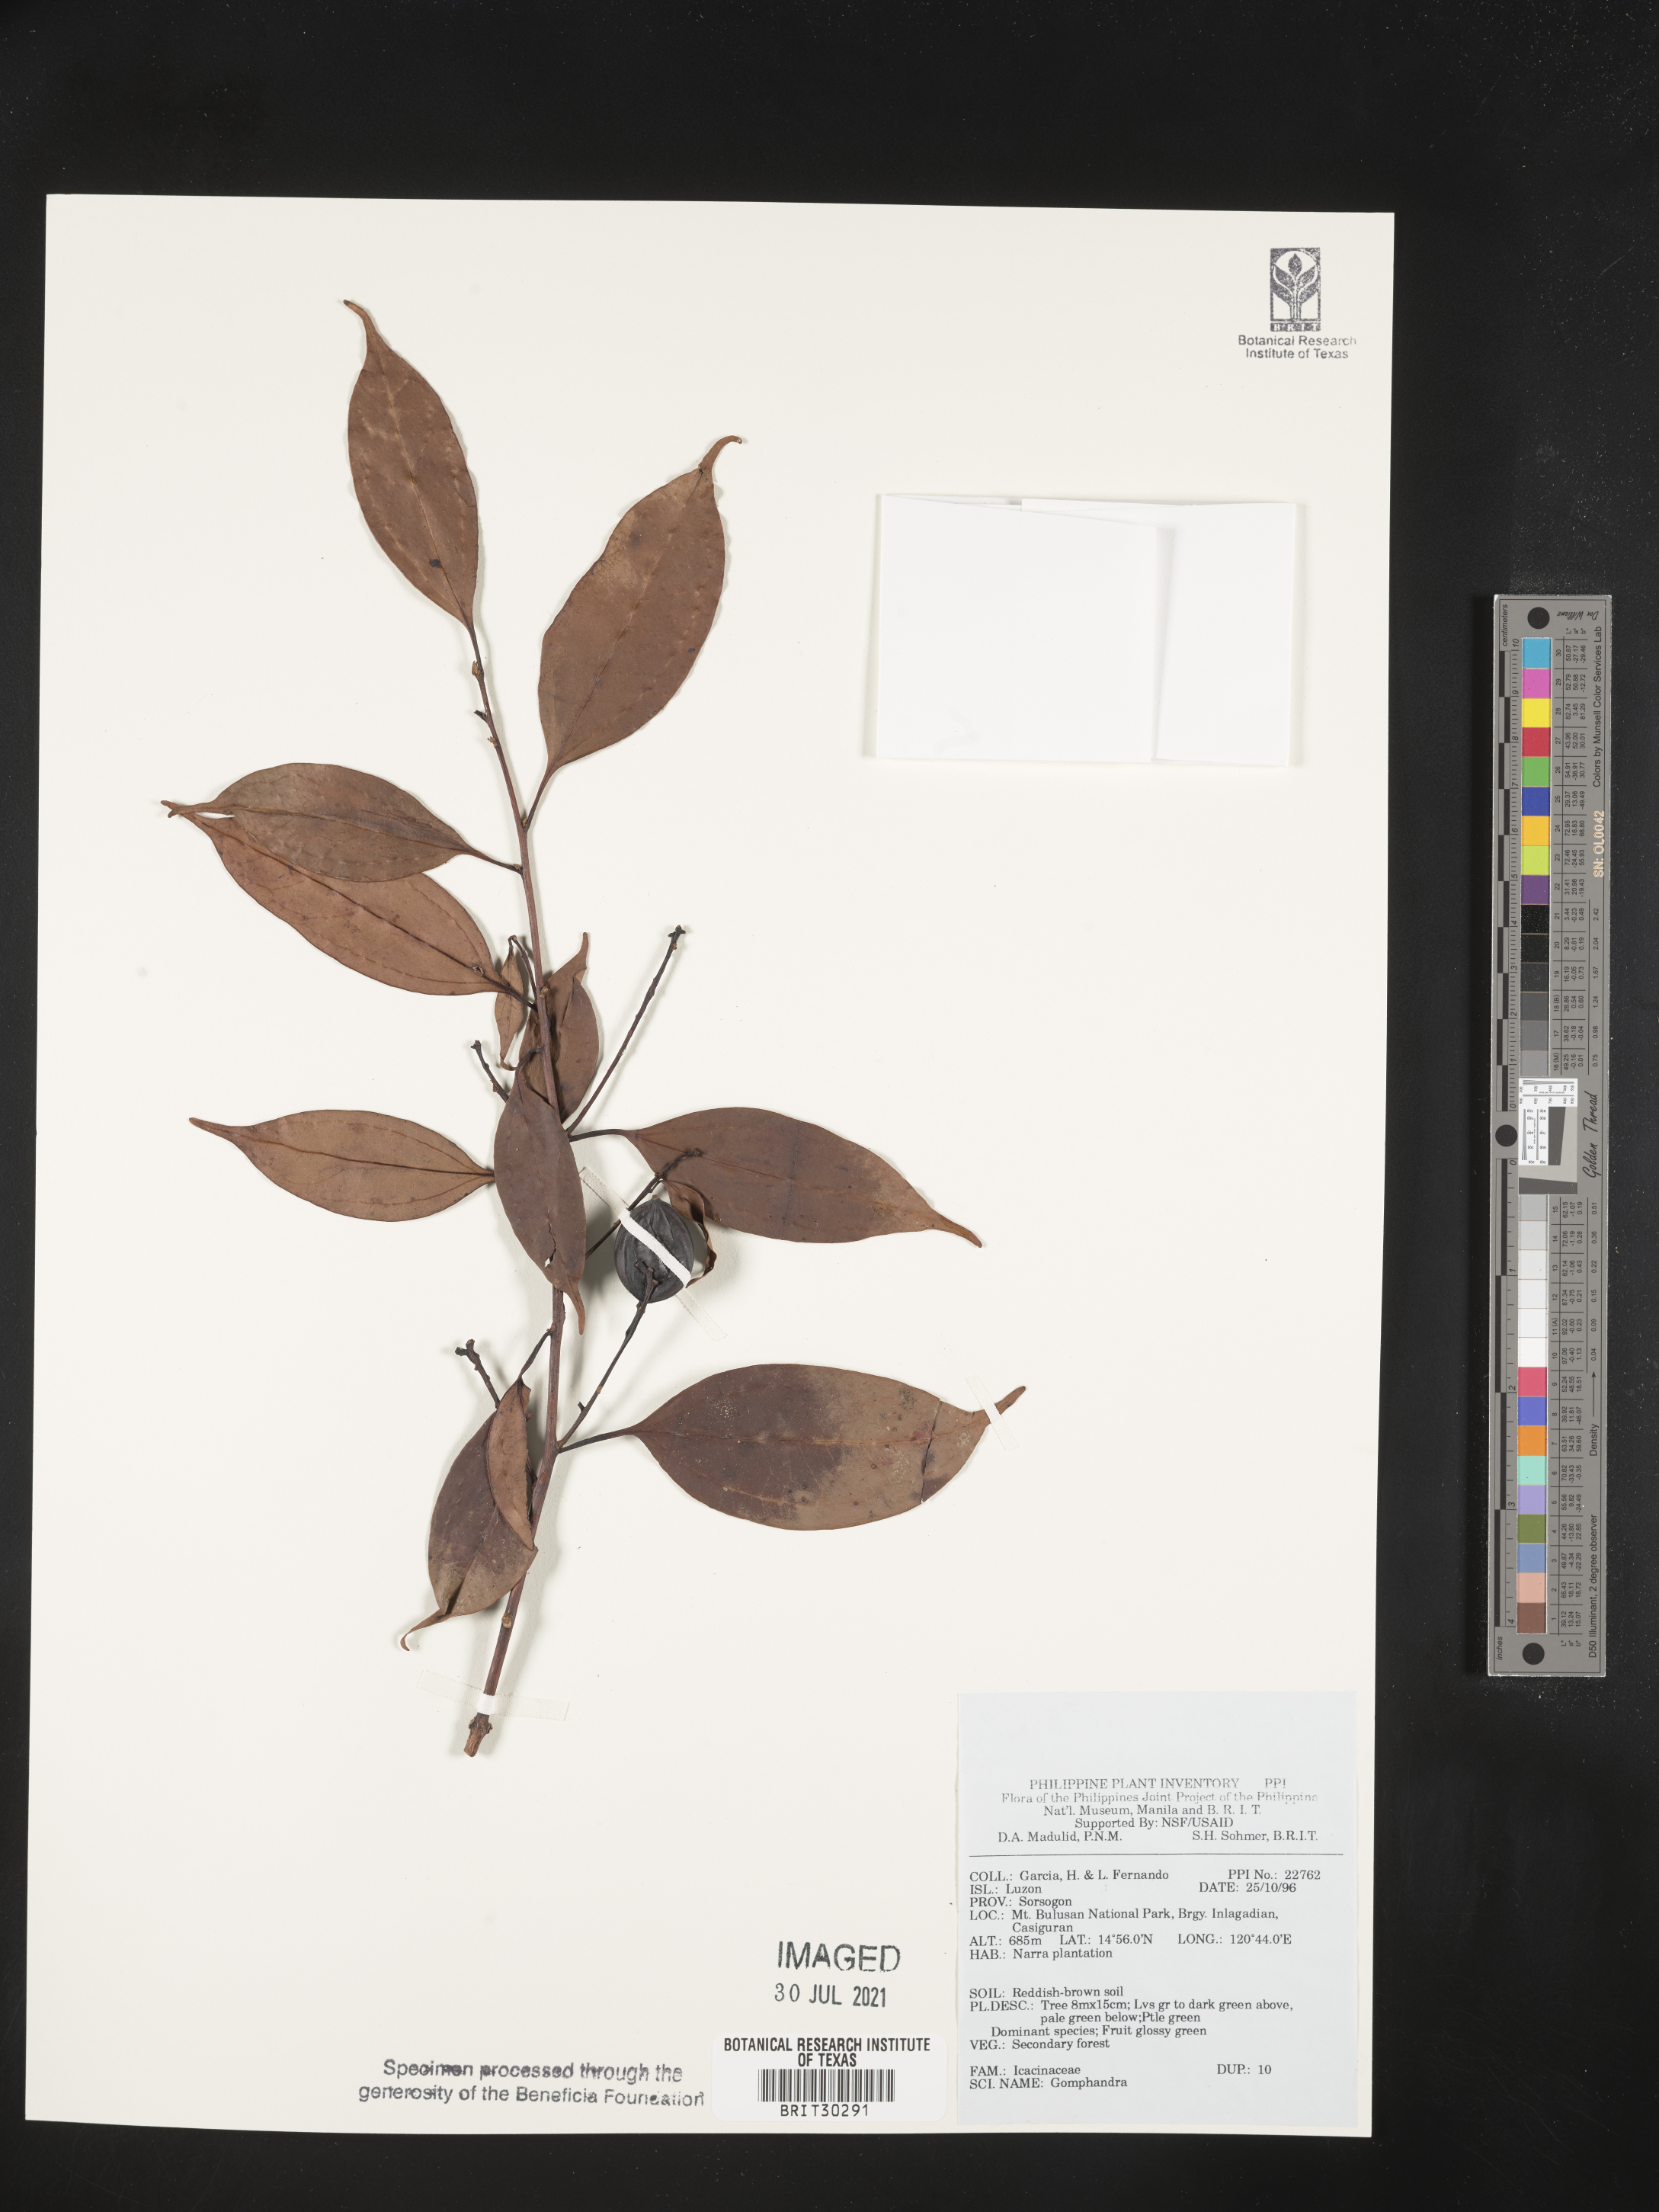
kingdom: Plantae
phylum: Tracheophyta
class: Magnoliopsida
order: Cardiopteridales
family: Stemonuraceae
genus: Gomphandra
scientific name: Gomphandra
